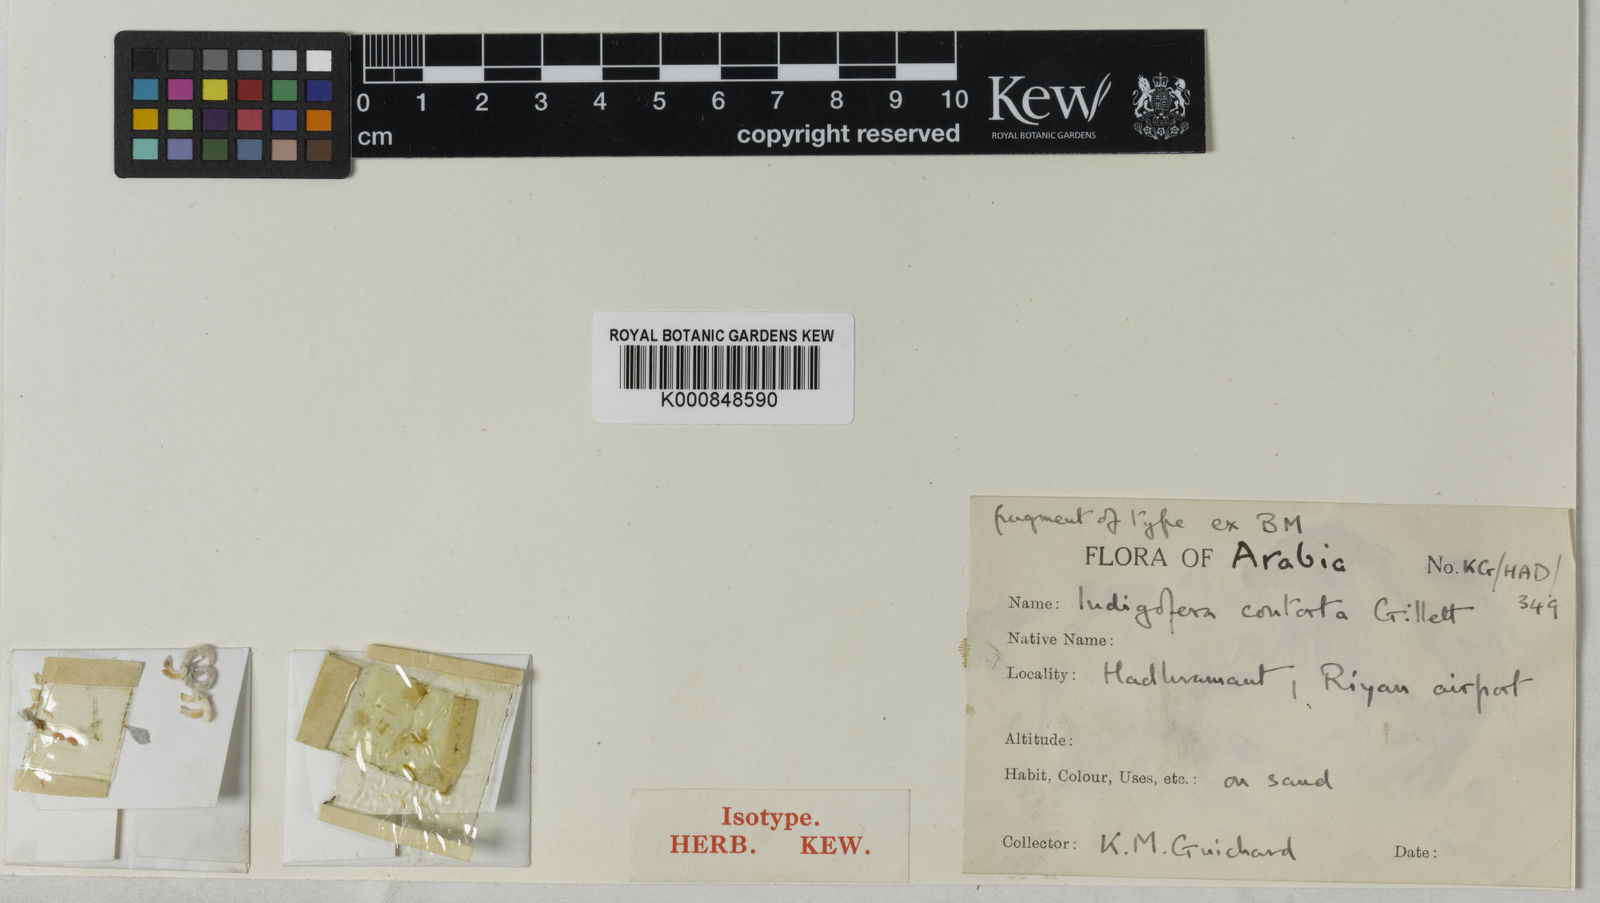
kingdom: Plantae
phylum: Tracheophyta
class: Magnoliopsida
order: Fabales
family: Fabaceae
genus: Microcharis
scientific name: Microcharis contorta
